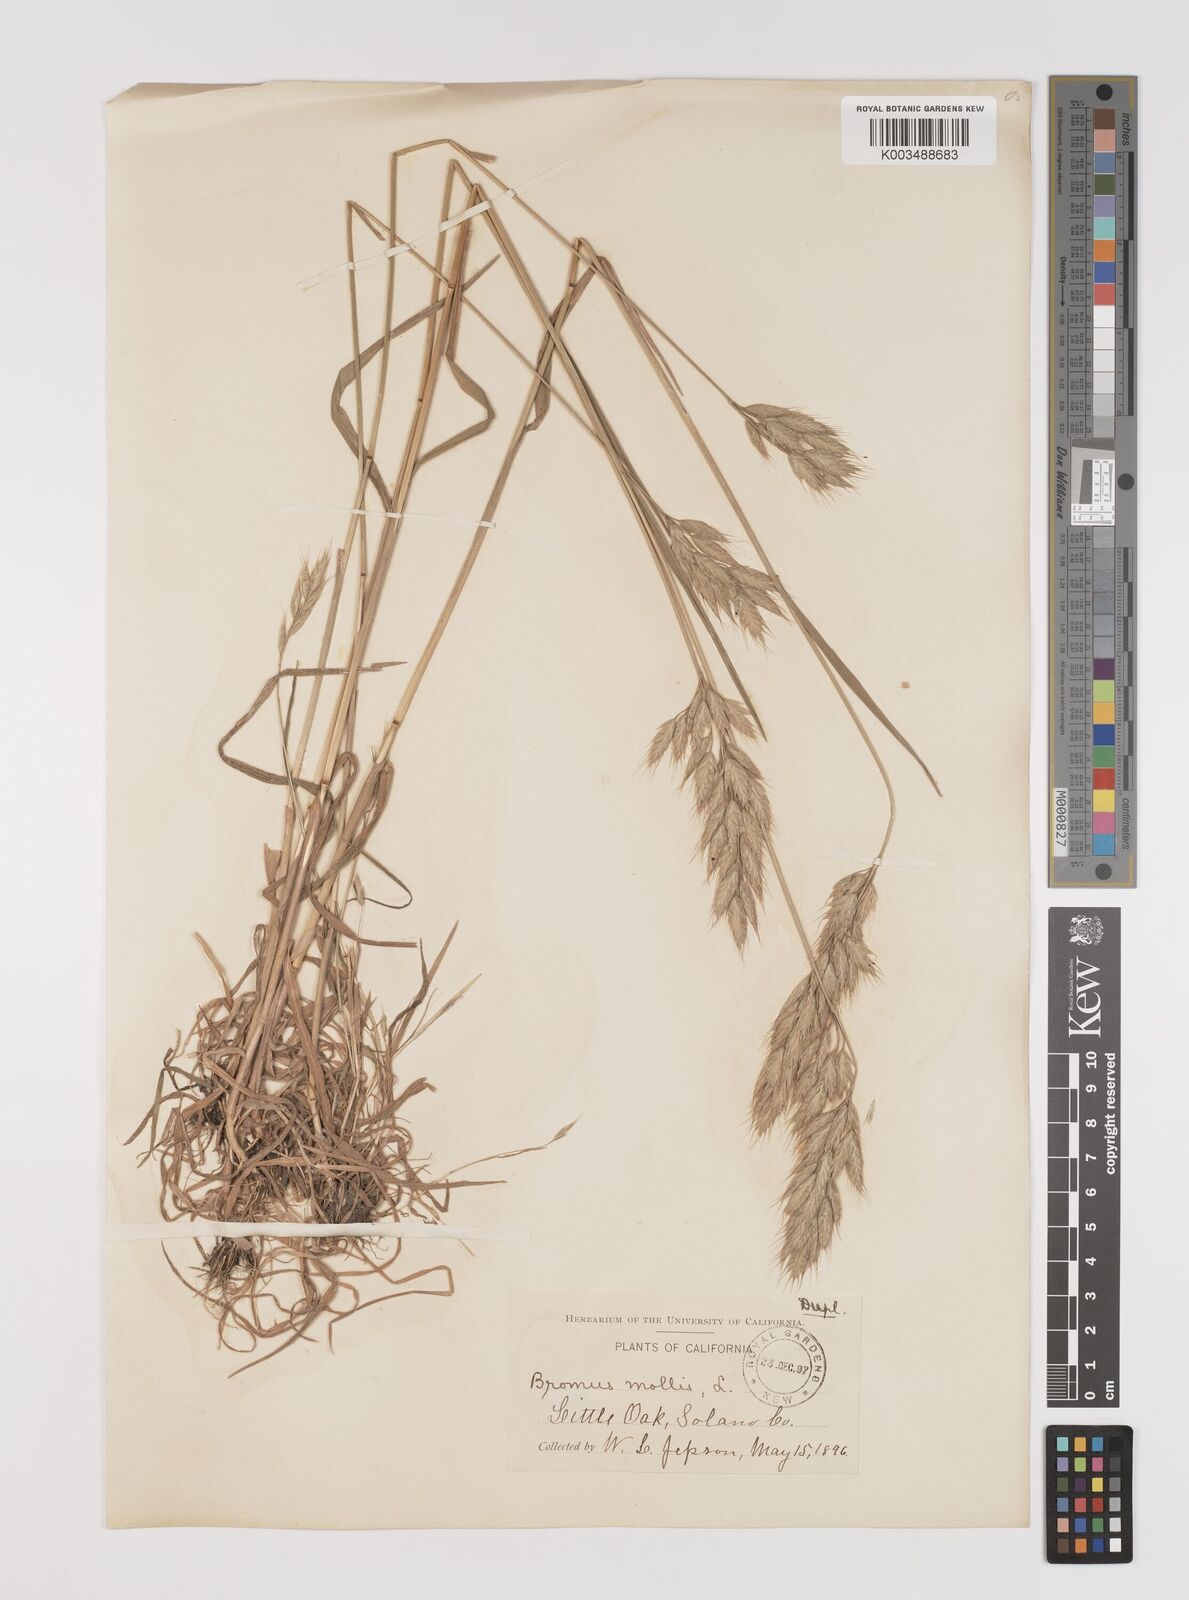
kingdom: Plantae
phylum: Tracheophyta
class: Liliopsida
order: Poales
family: Poaceae
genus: Bromus
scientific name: Bromus hordeaceus
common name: Soft brome
